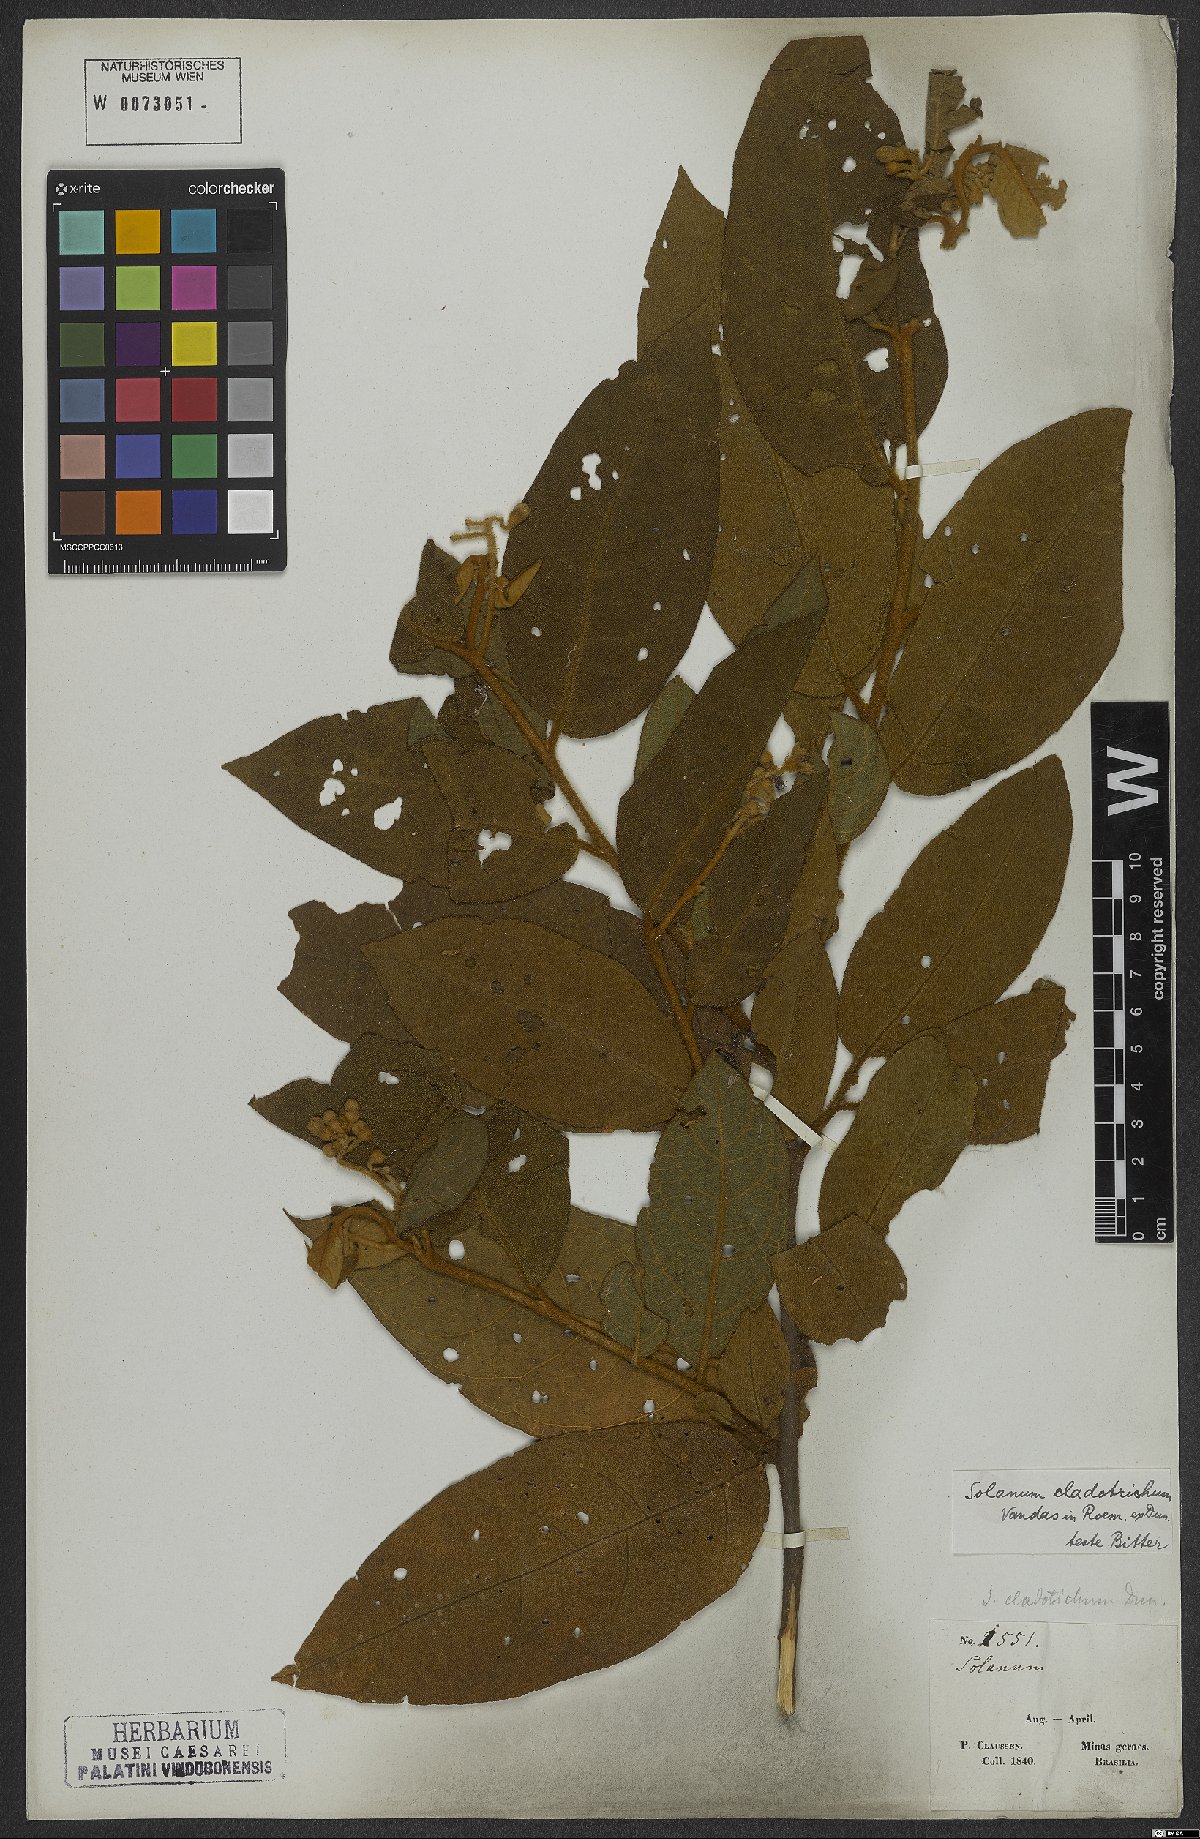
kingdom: Plantae
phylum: Tracheophyta
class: Magnoliopsida
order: Solanales
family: Solanaceae
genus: Solanum
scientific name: Solanum jussiaei
